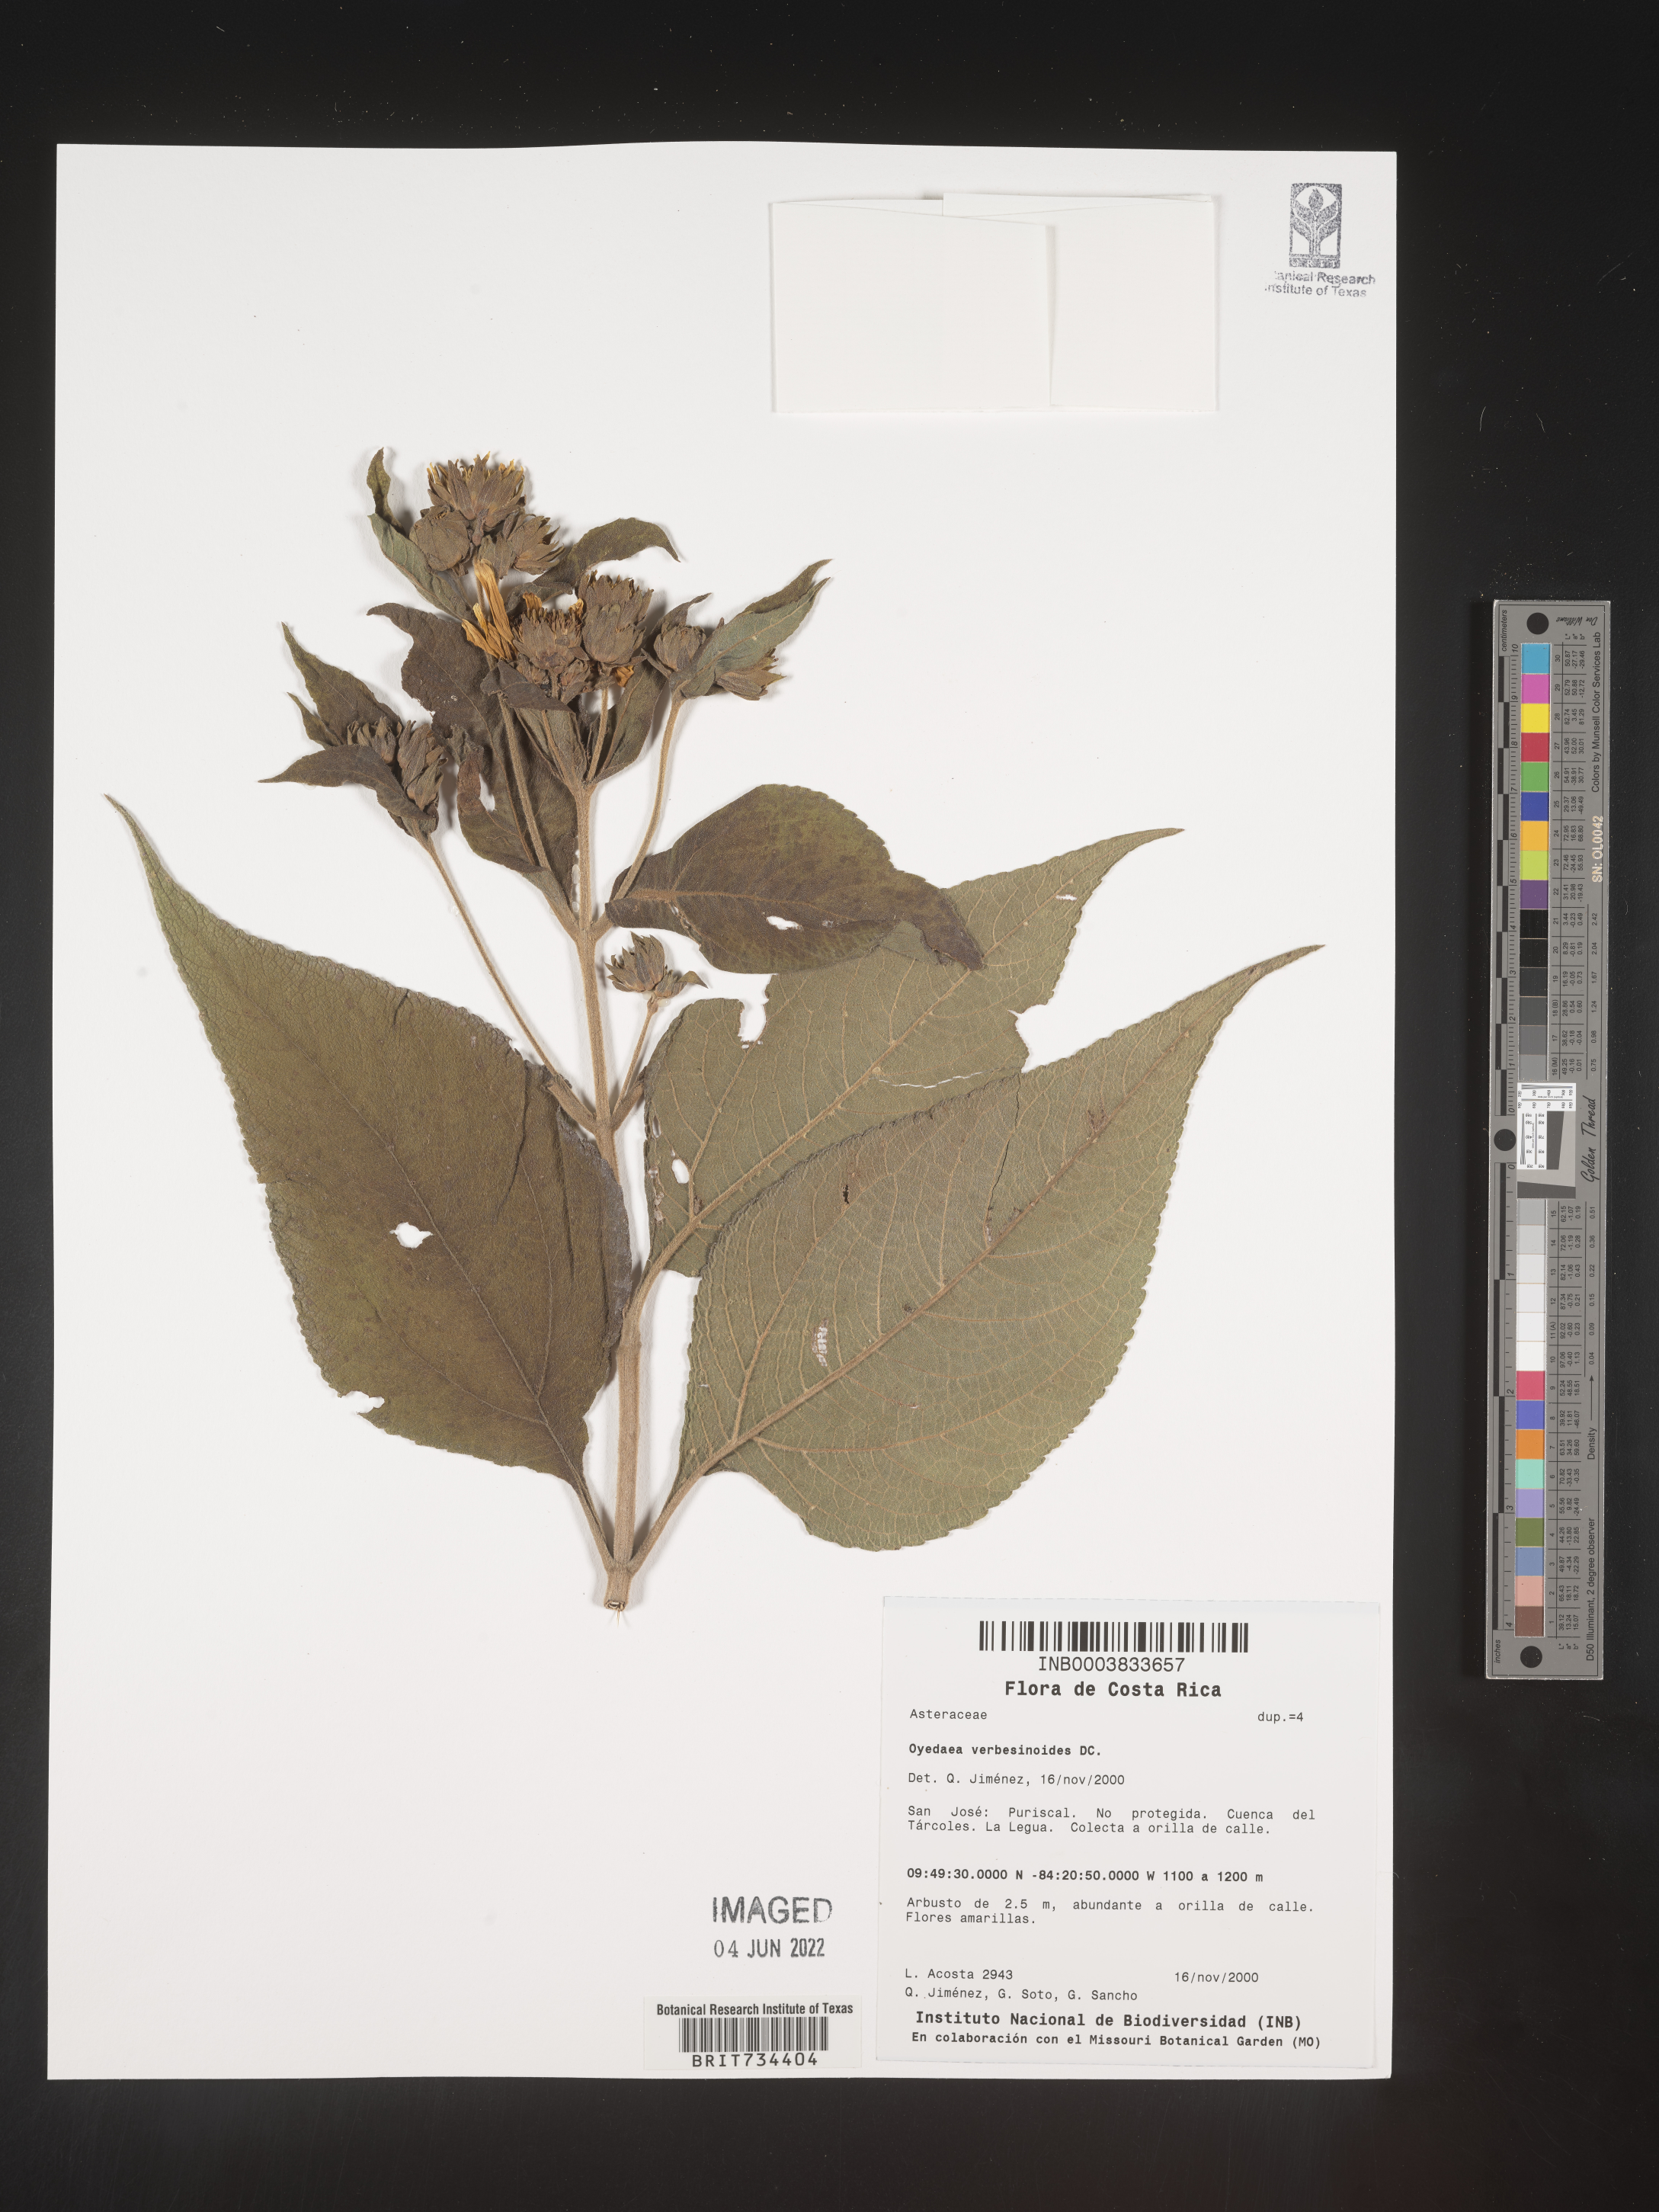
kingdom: Plantae
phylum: Tracheophyta
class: Magnoliopsida
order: Asterales
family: Asteraceae
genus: Oyedaea
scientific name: Oyedaea
